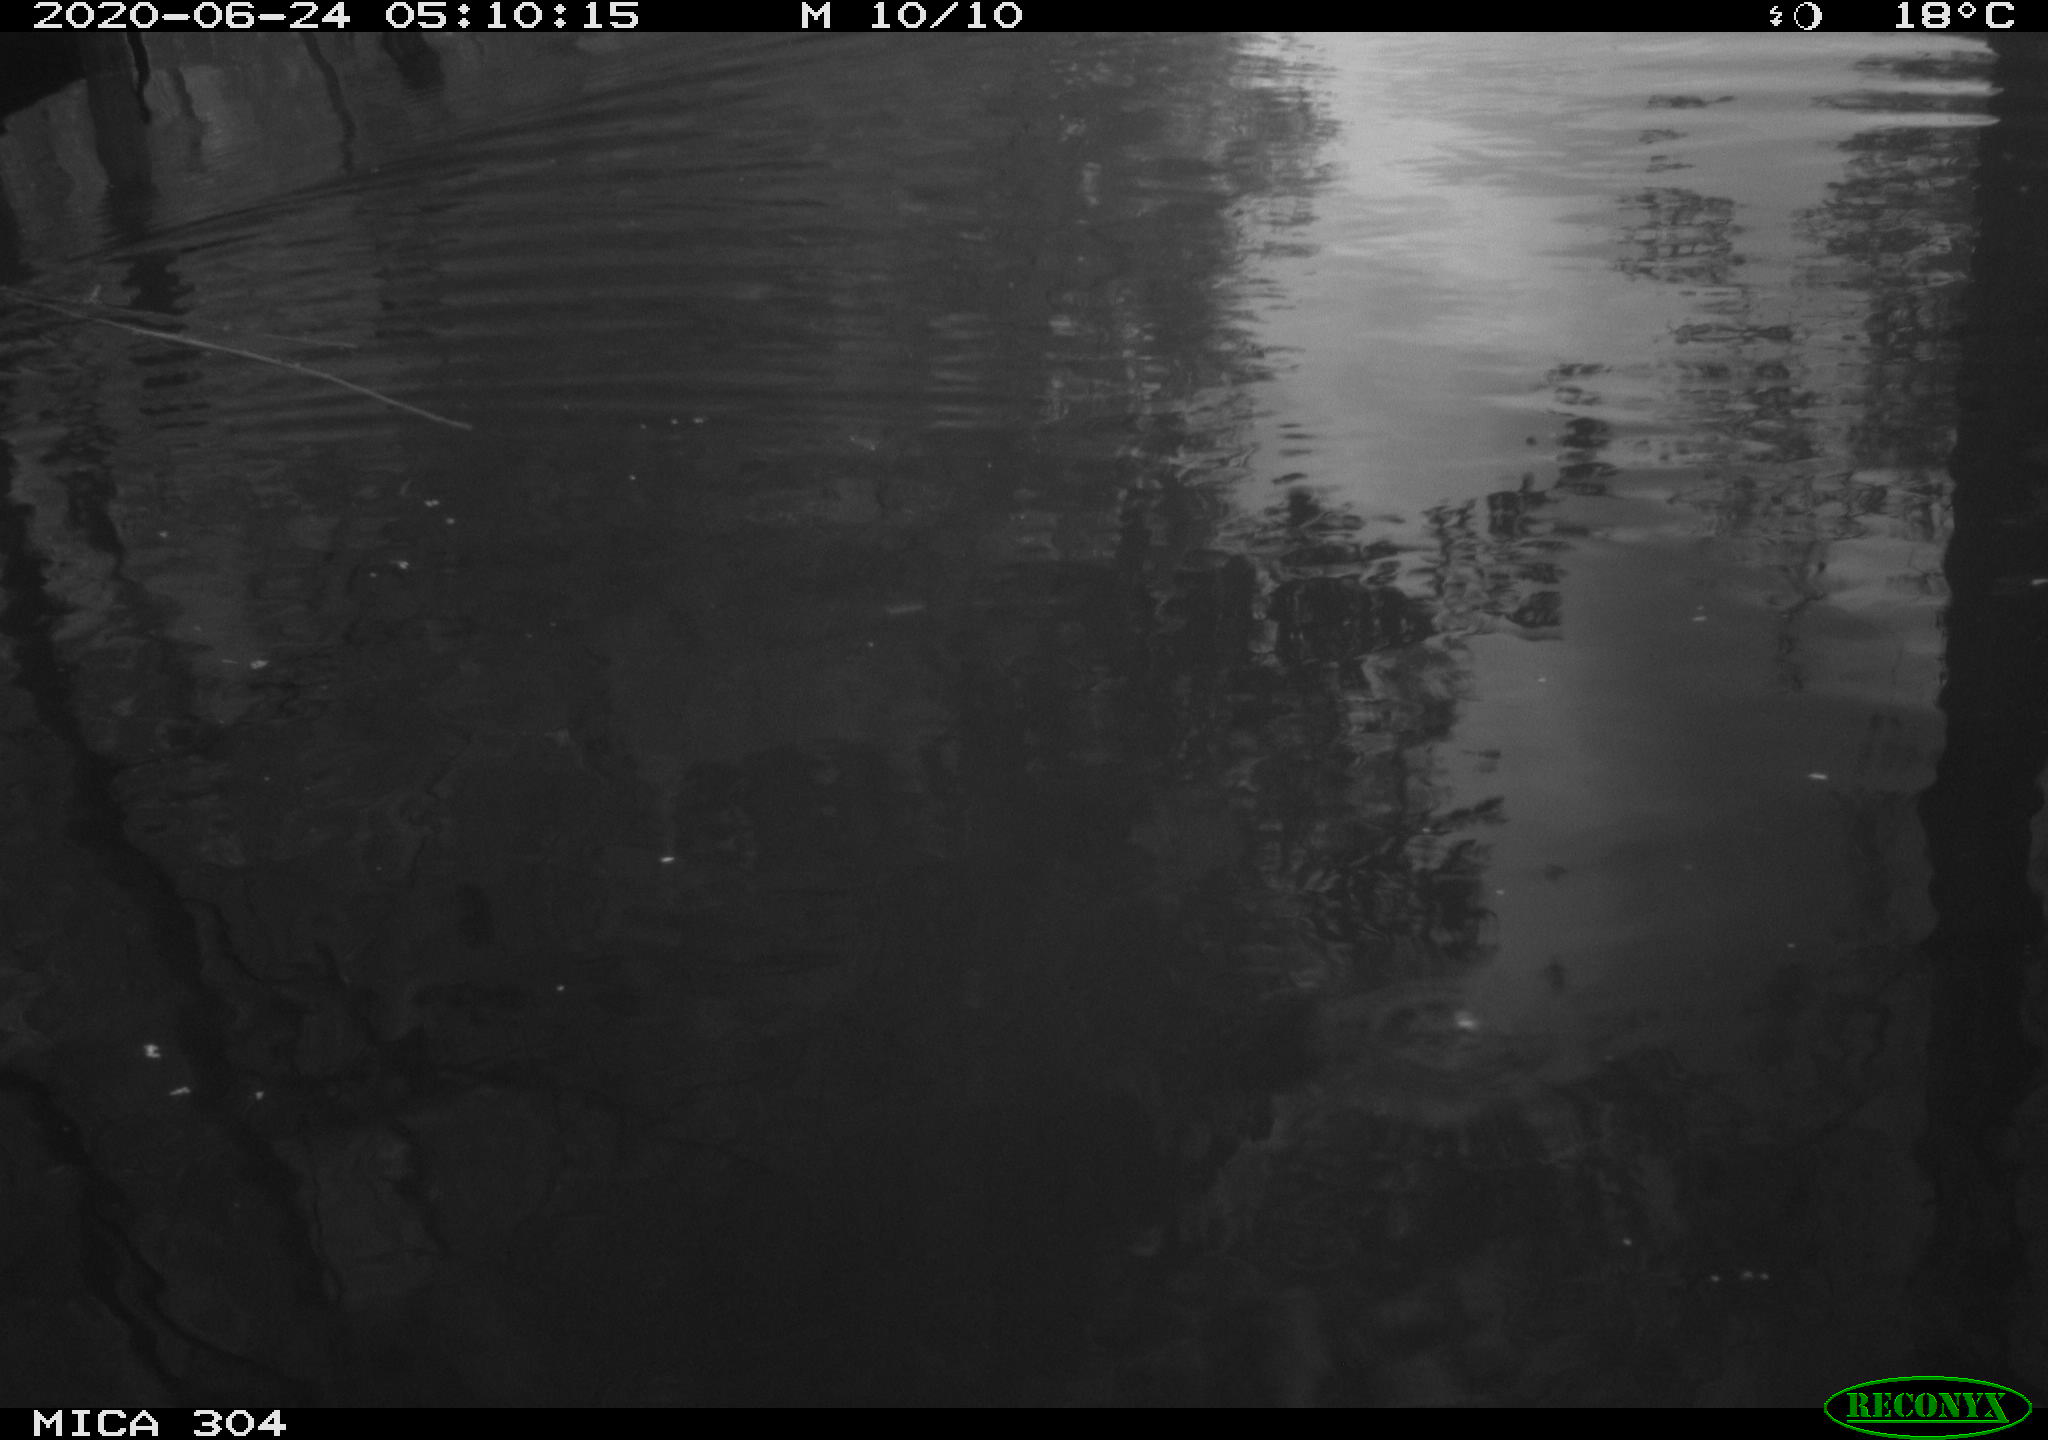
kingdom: Animalia
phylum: Chordata
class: Aves
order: Anseriformes
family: Anatidae
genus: Anas
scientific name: Anas platyrhynchos
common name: Mallard
